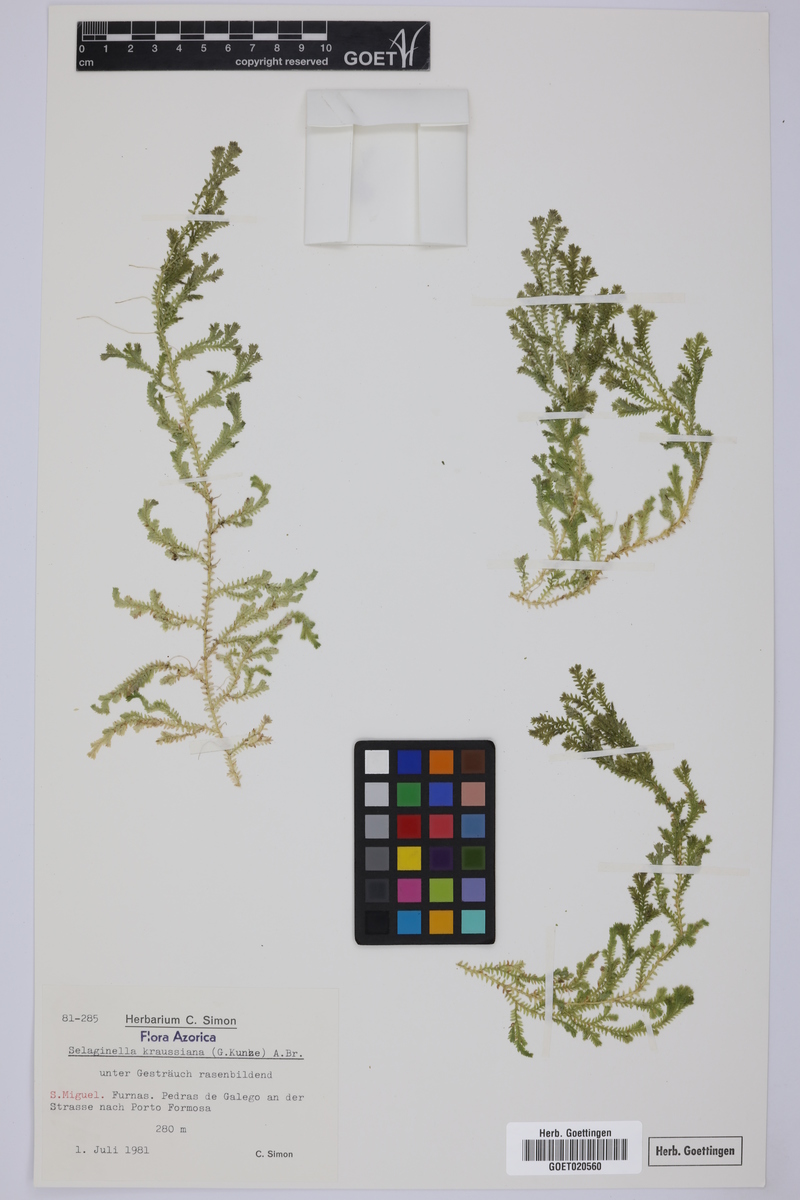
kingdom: Plantae
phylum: Tracheophyta
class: Lycopodiopsida
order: Selaginellales
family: Selaginellaceae
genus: Selaginella
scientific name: Selaginella kraussiana
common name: Krauss' spikemoss
